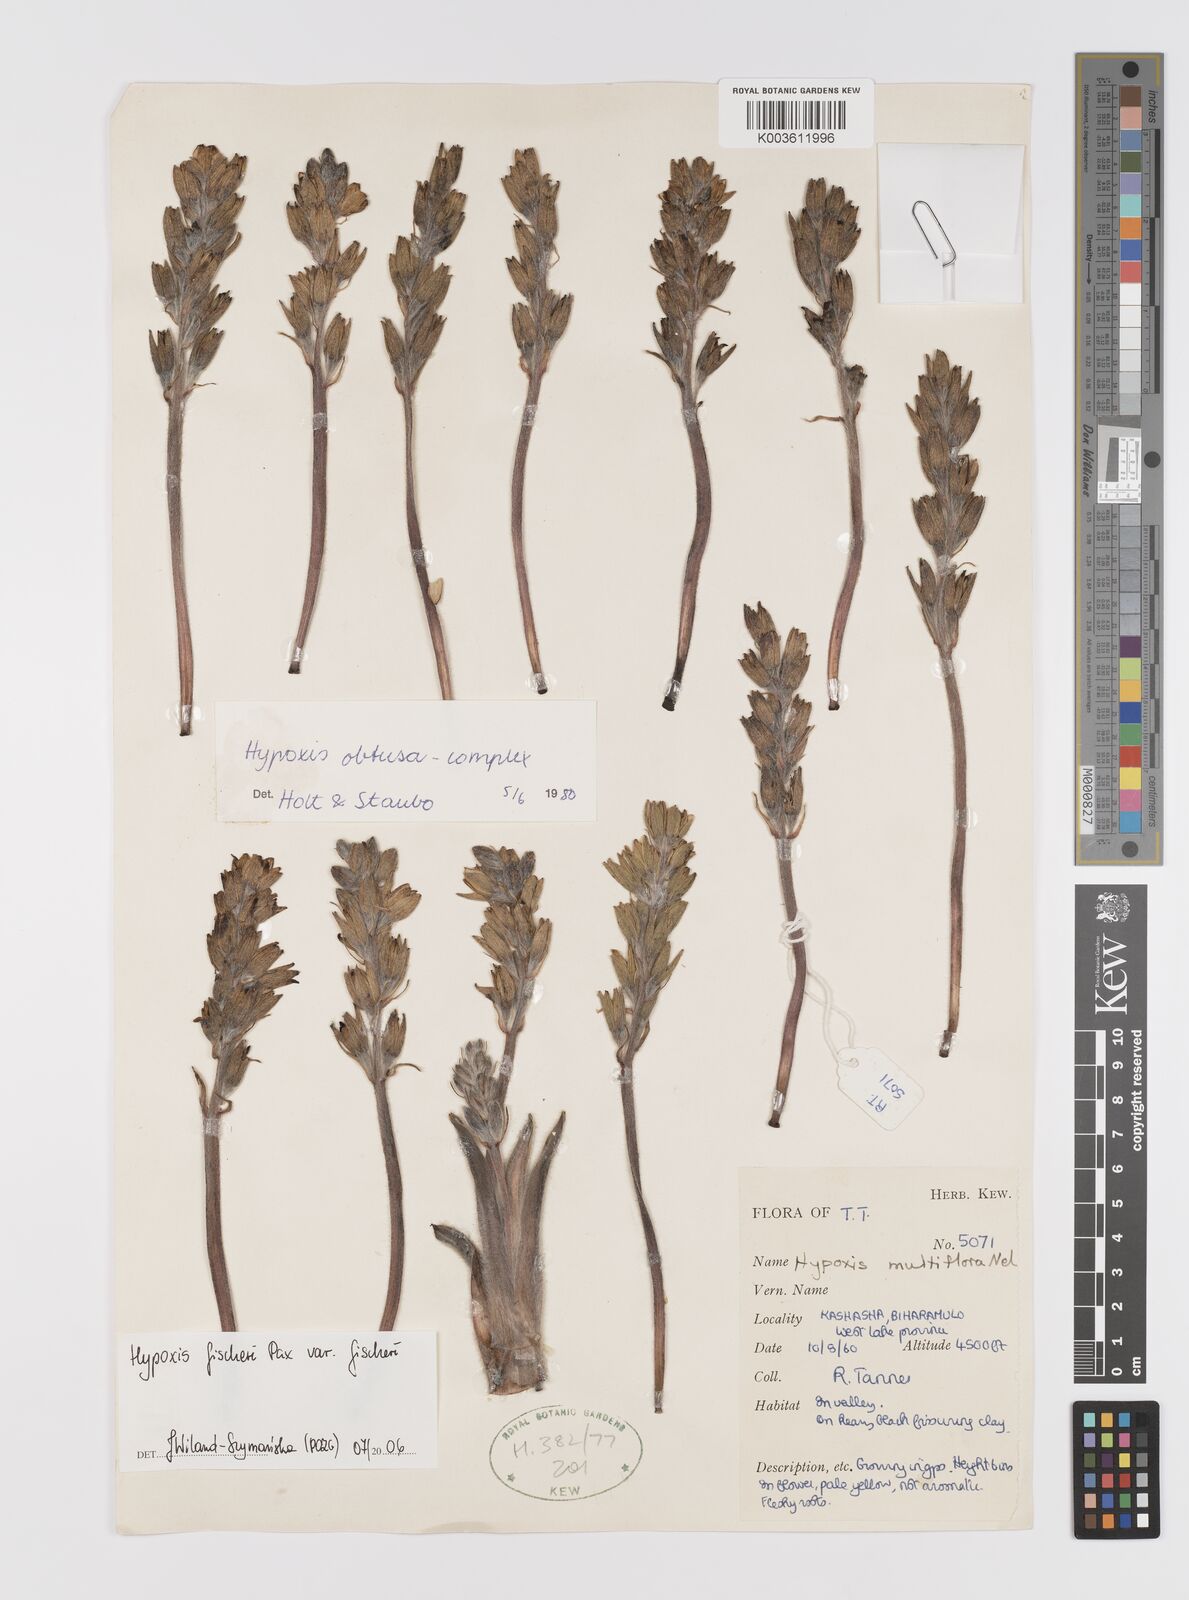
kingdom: Plantae
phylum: Tracheophyta
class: Liliopsida
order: Asparagales
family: Hypoxidaceae
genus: Hypoxis
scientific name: Hypoxis fischeri
